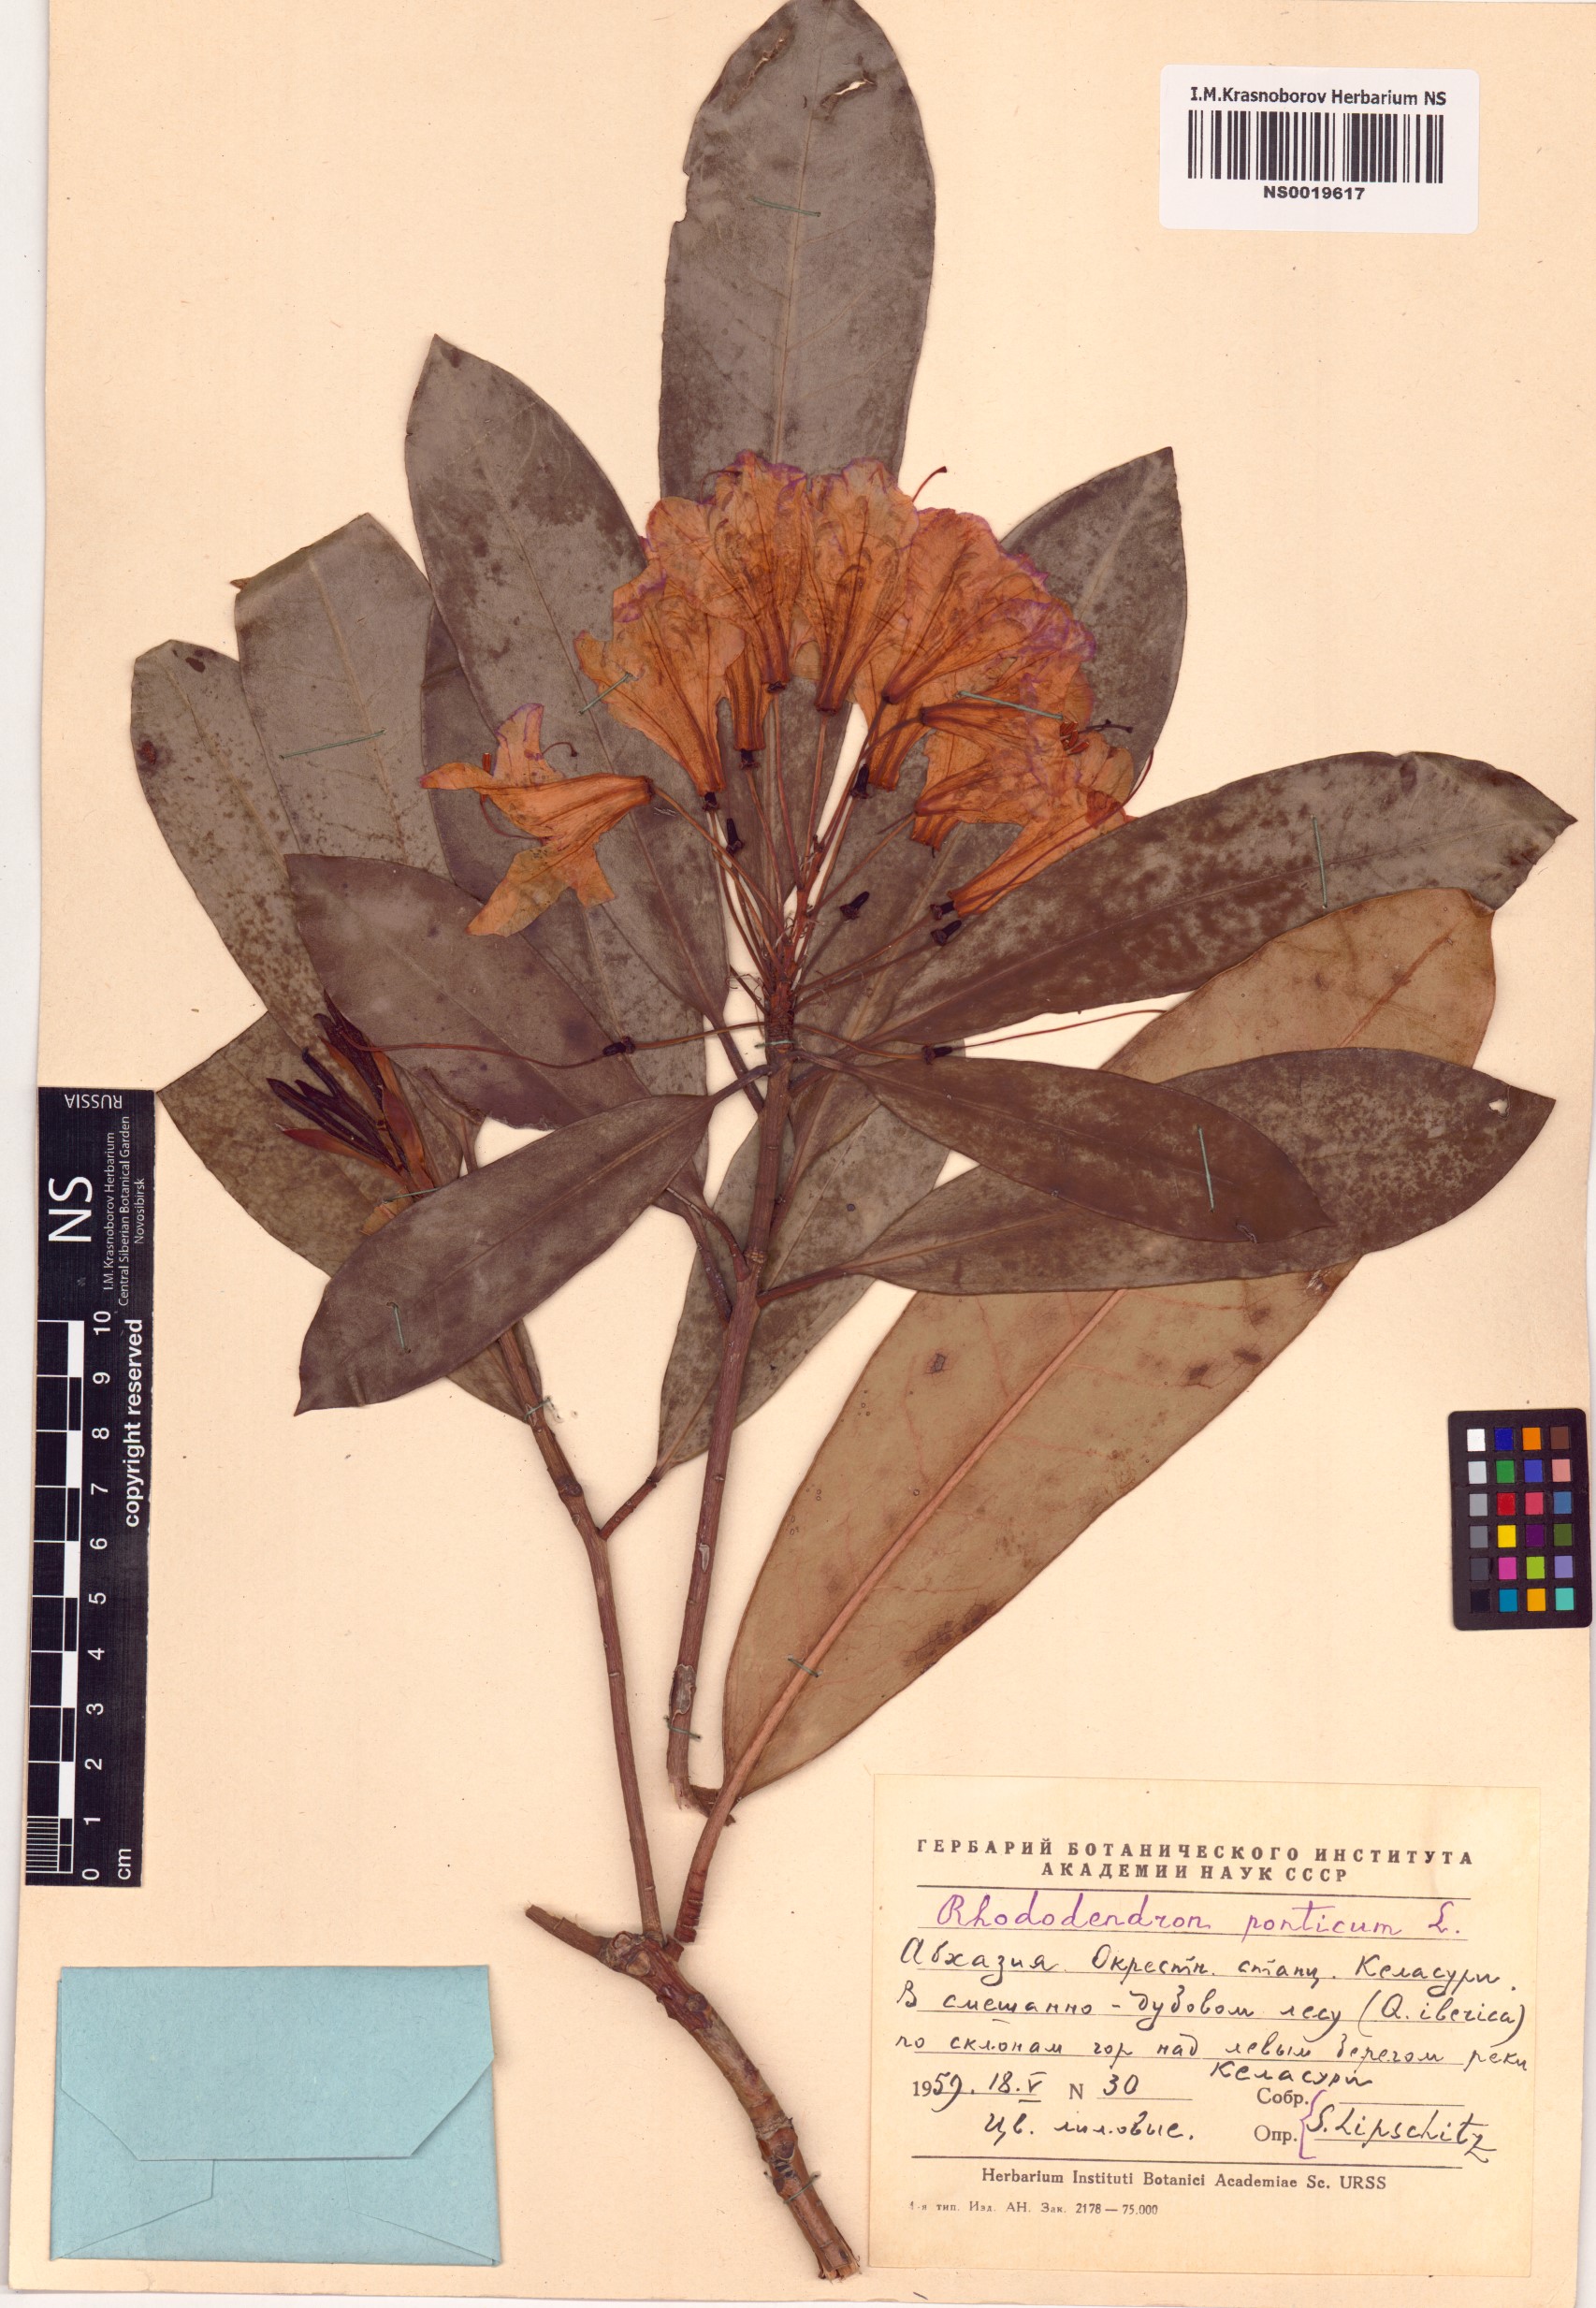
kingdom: Plantae
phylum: Tracheophyta
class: Magnoliopsida
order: Ericales
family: Ericaceae
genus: Rhododendron
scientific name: Rhododendron ponticum
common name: Rhododendron
